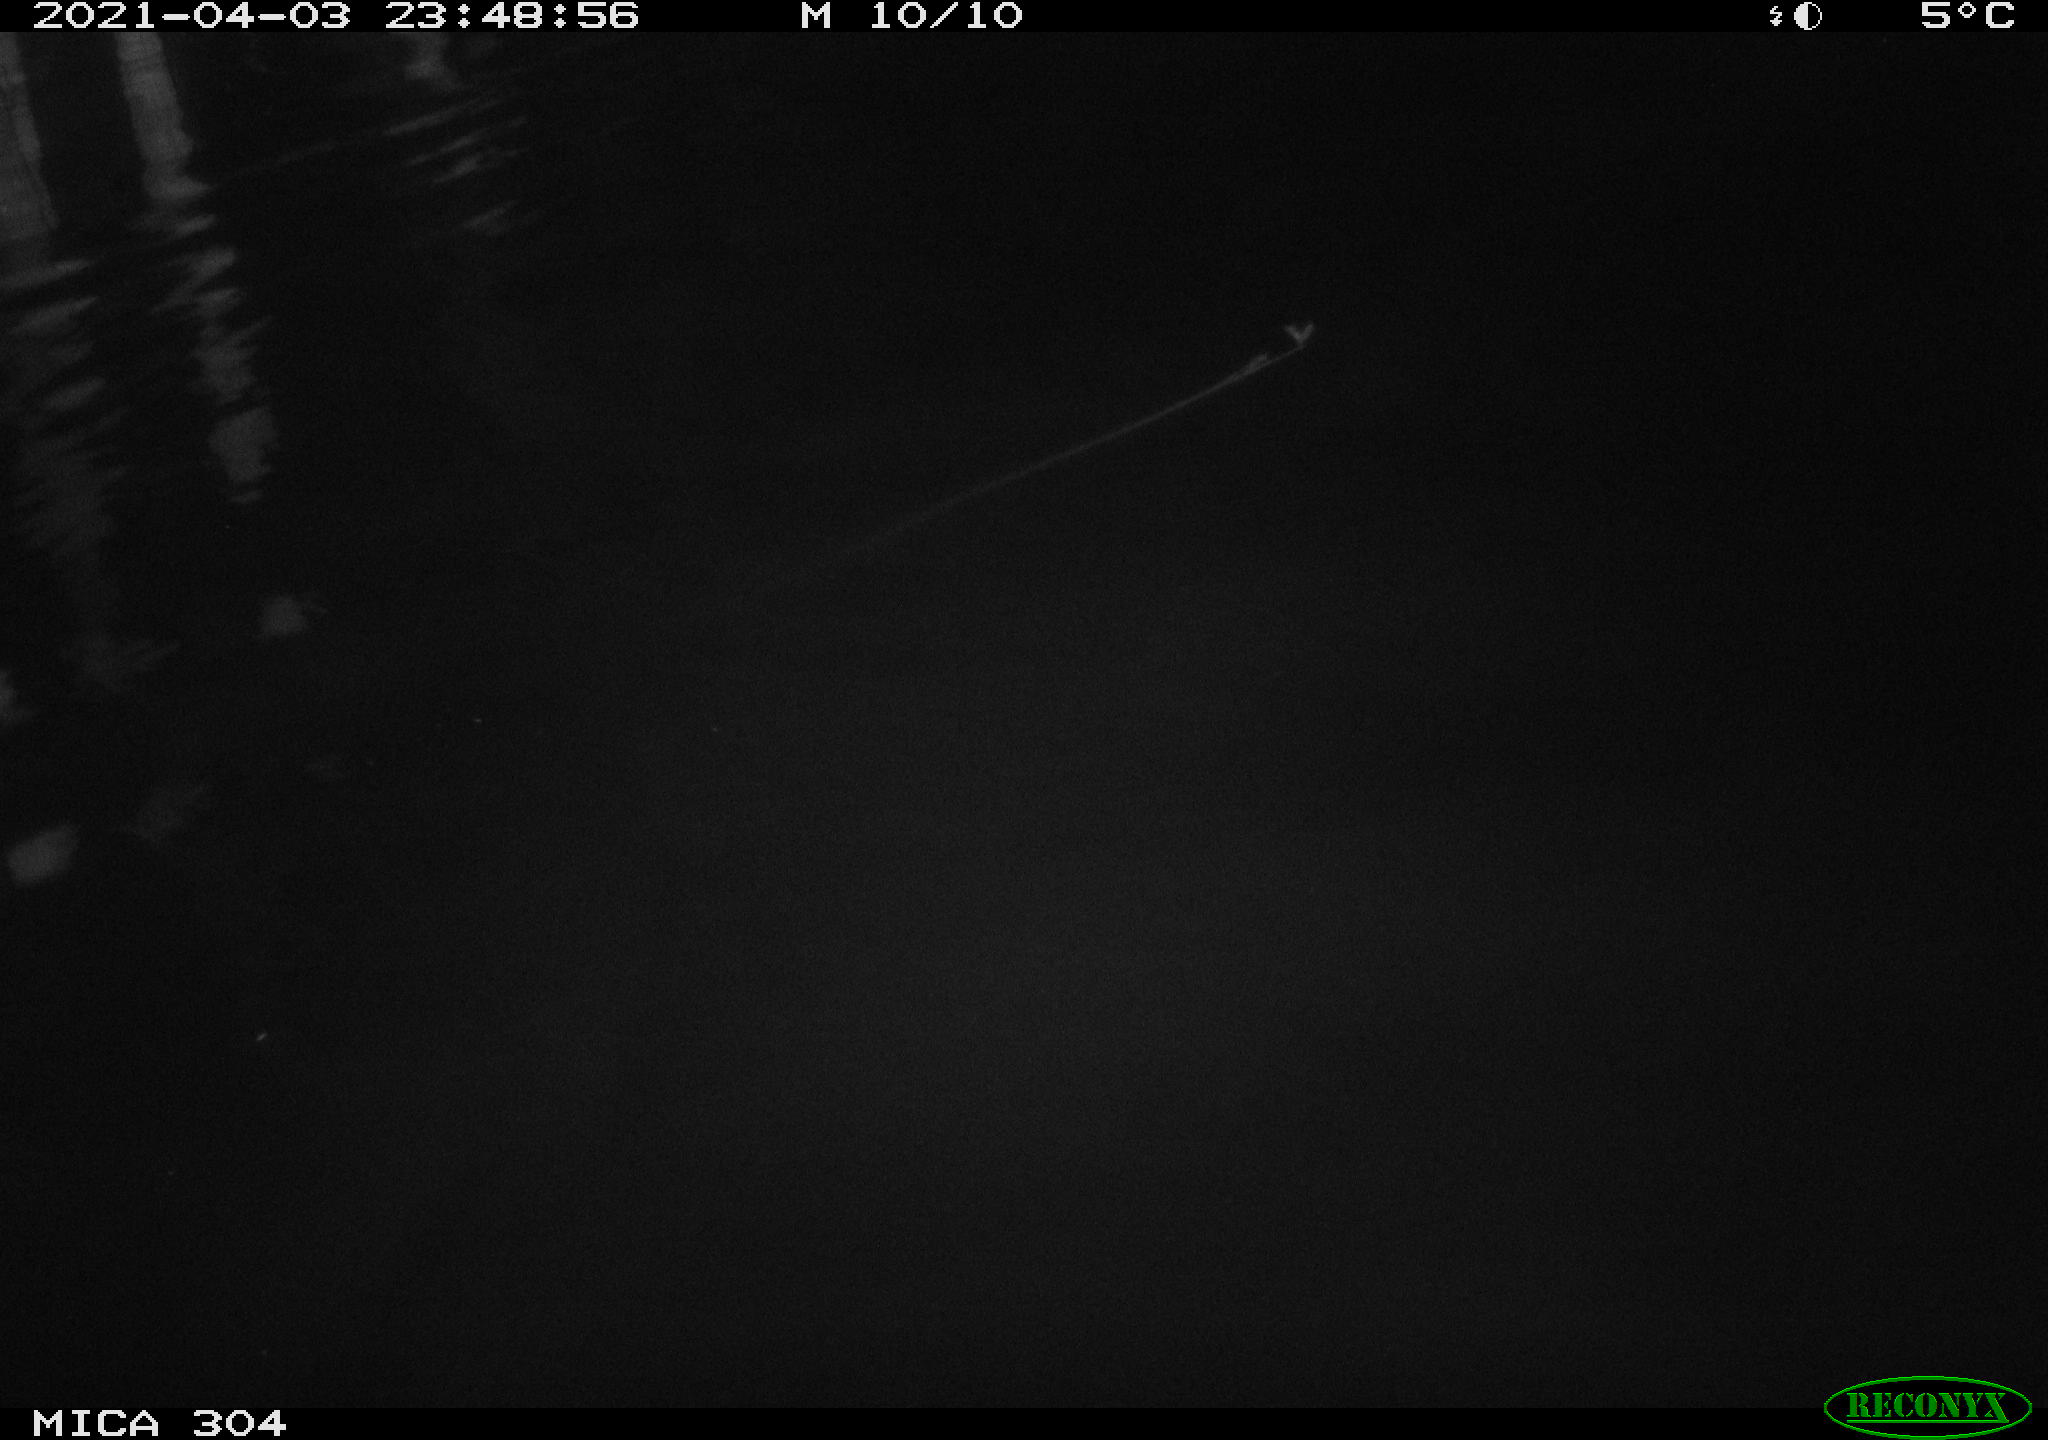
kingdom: Animalia
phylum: Chordata
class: Aves
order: Anseriformes
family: Anatidae
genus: Anas
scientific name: Anas
